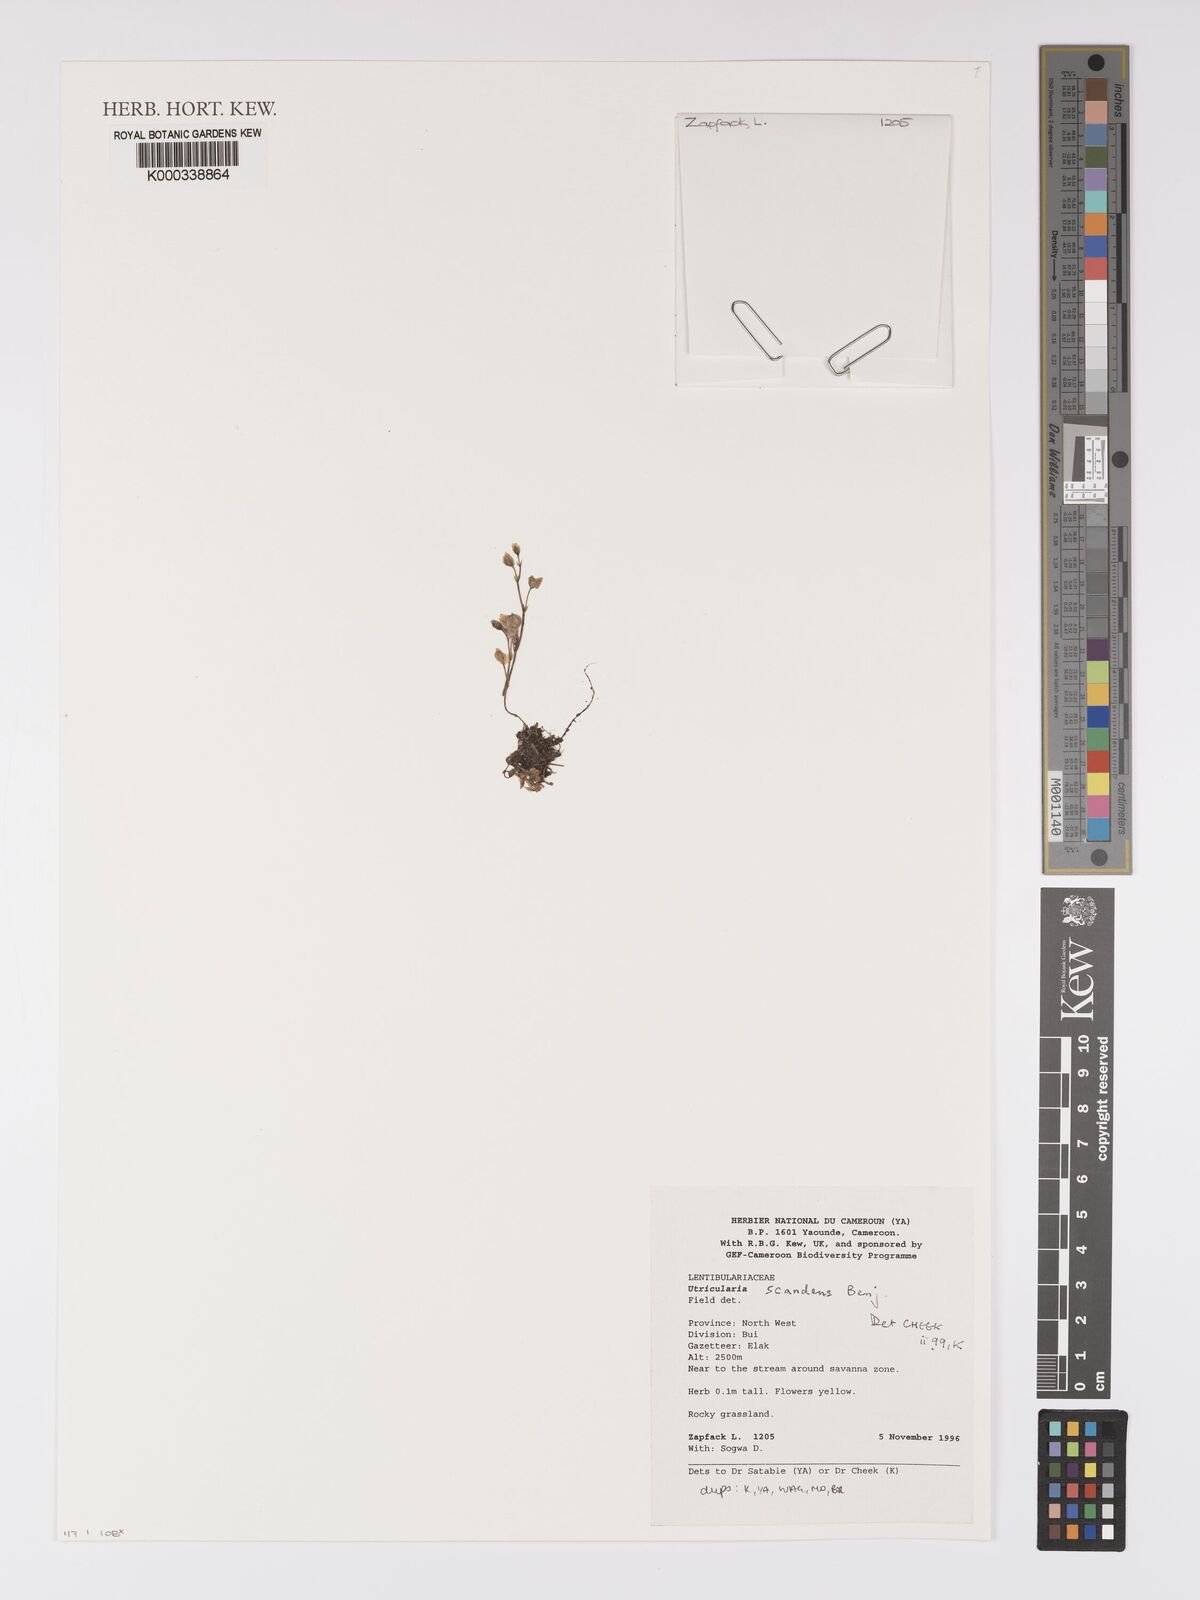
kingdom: Plantae
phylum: Tracheophyta
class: Magnoliopsida
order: Lamiales
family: Lentibulariaceae
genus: Utricularia
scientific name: Utricularia scandens
